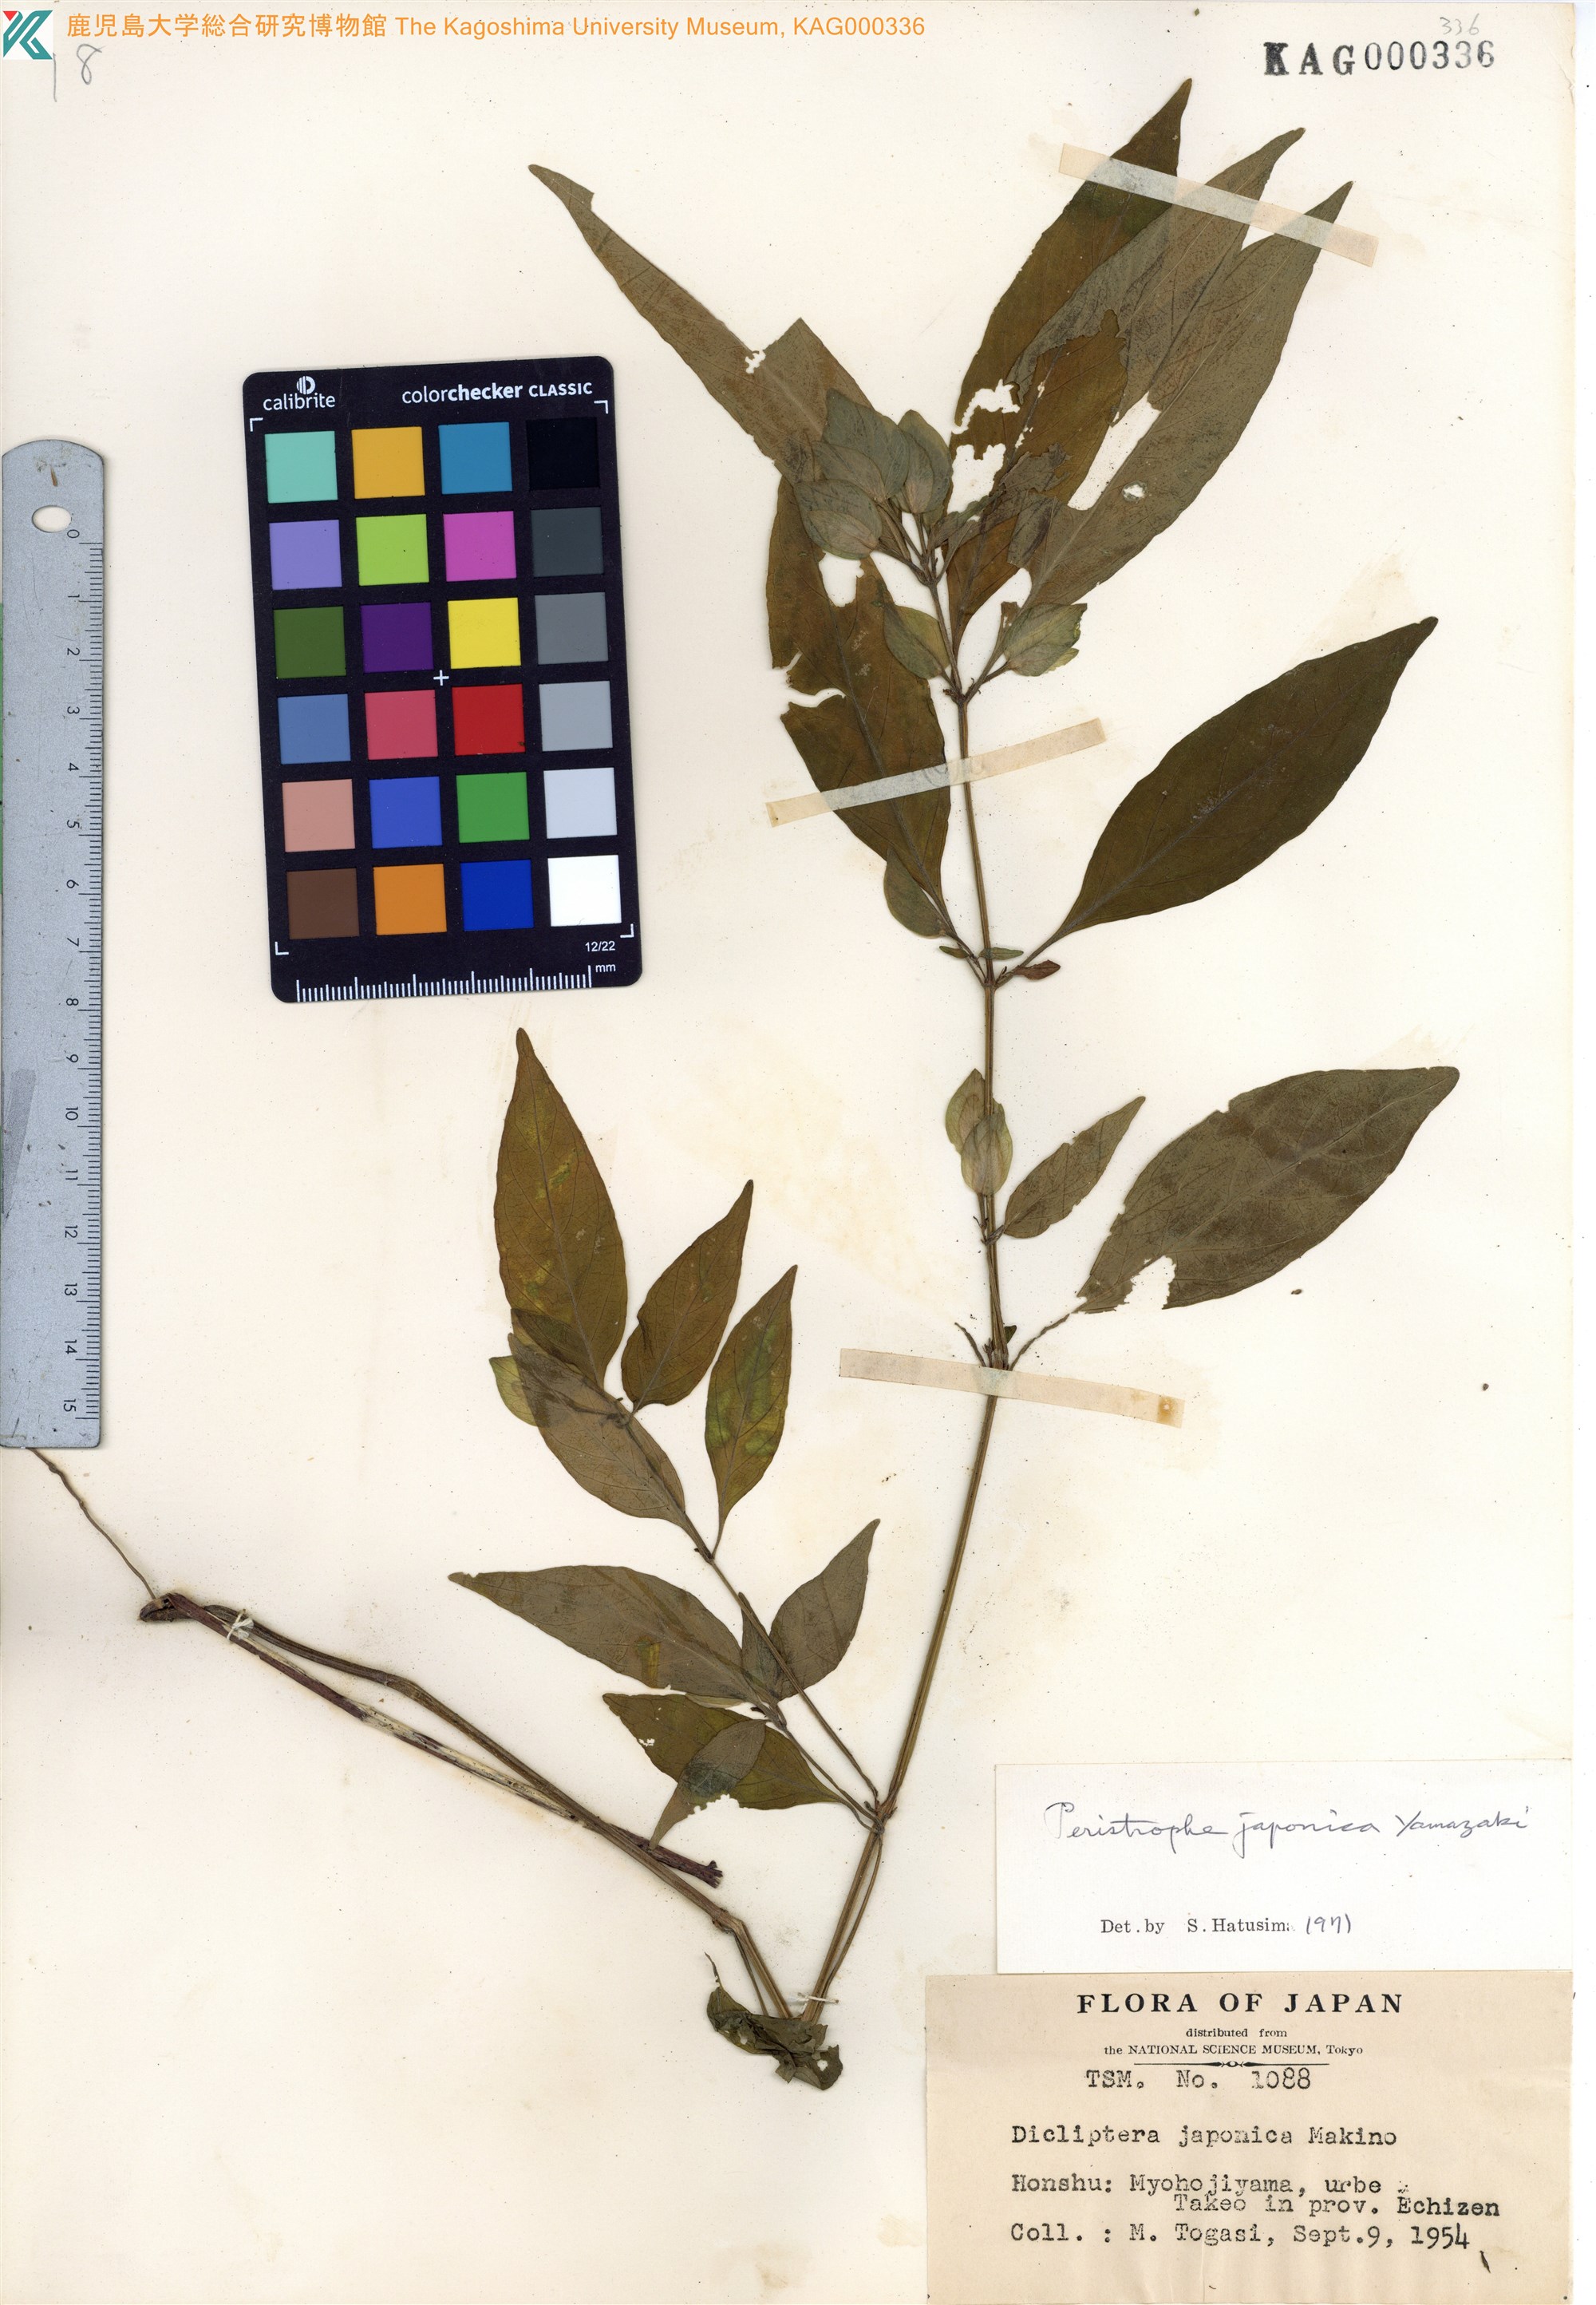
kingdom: Plantae
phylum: Tracheophyta
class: Magnoliopsida
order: Lamiales
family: Acanthaceae
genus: Dicliptera
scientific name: Dicliptera japonica
